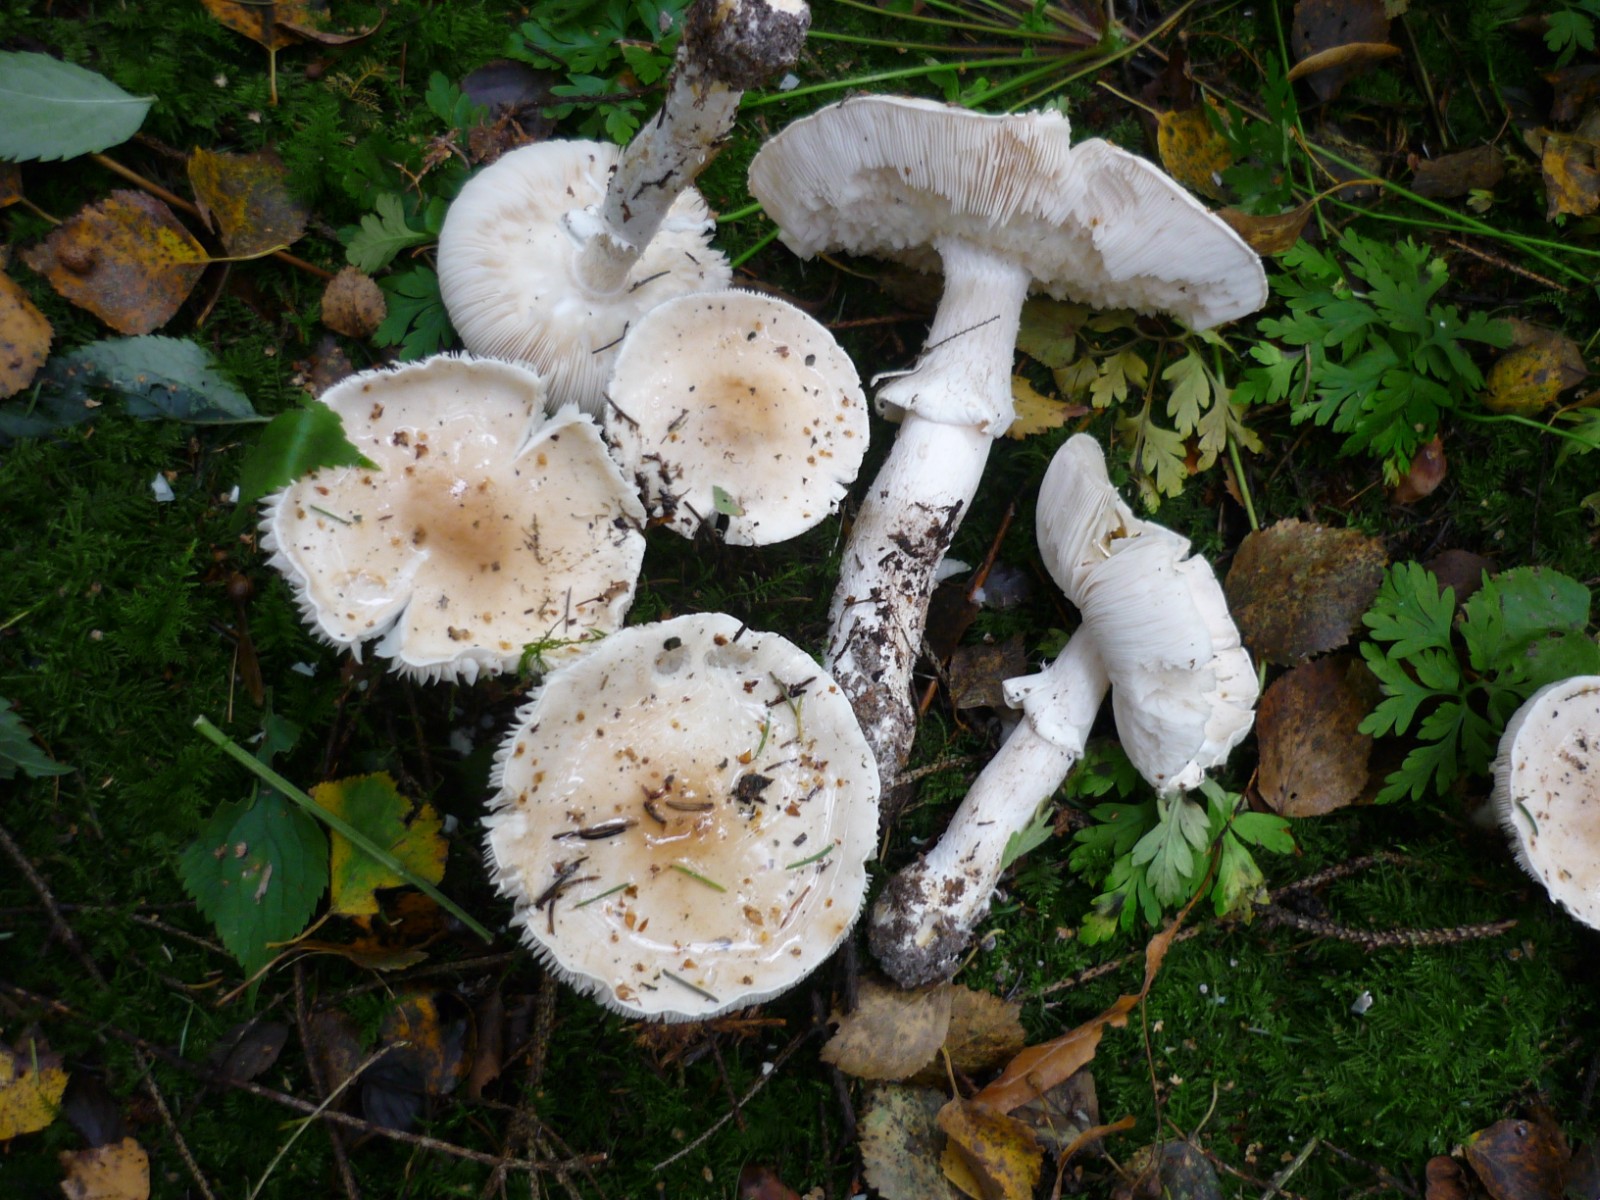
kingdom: Fungi
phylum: Basidiomycota
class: Agaricomycetes
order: Agaricales
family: Amanitaceae
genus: Limacellopsis
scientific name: Limacellopsis guttata
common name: tåre-snekkehat
